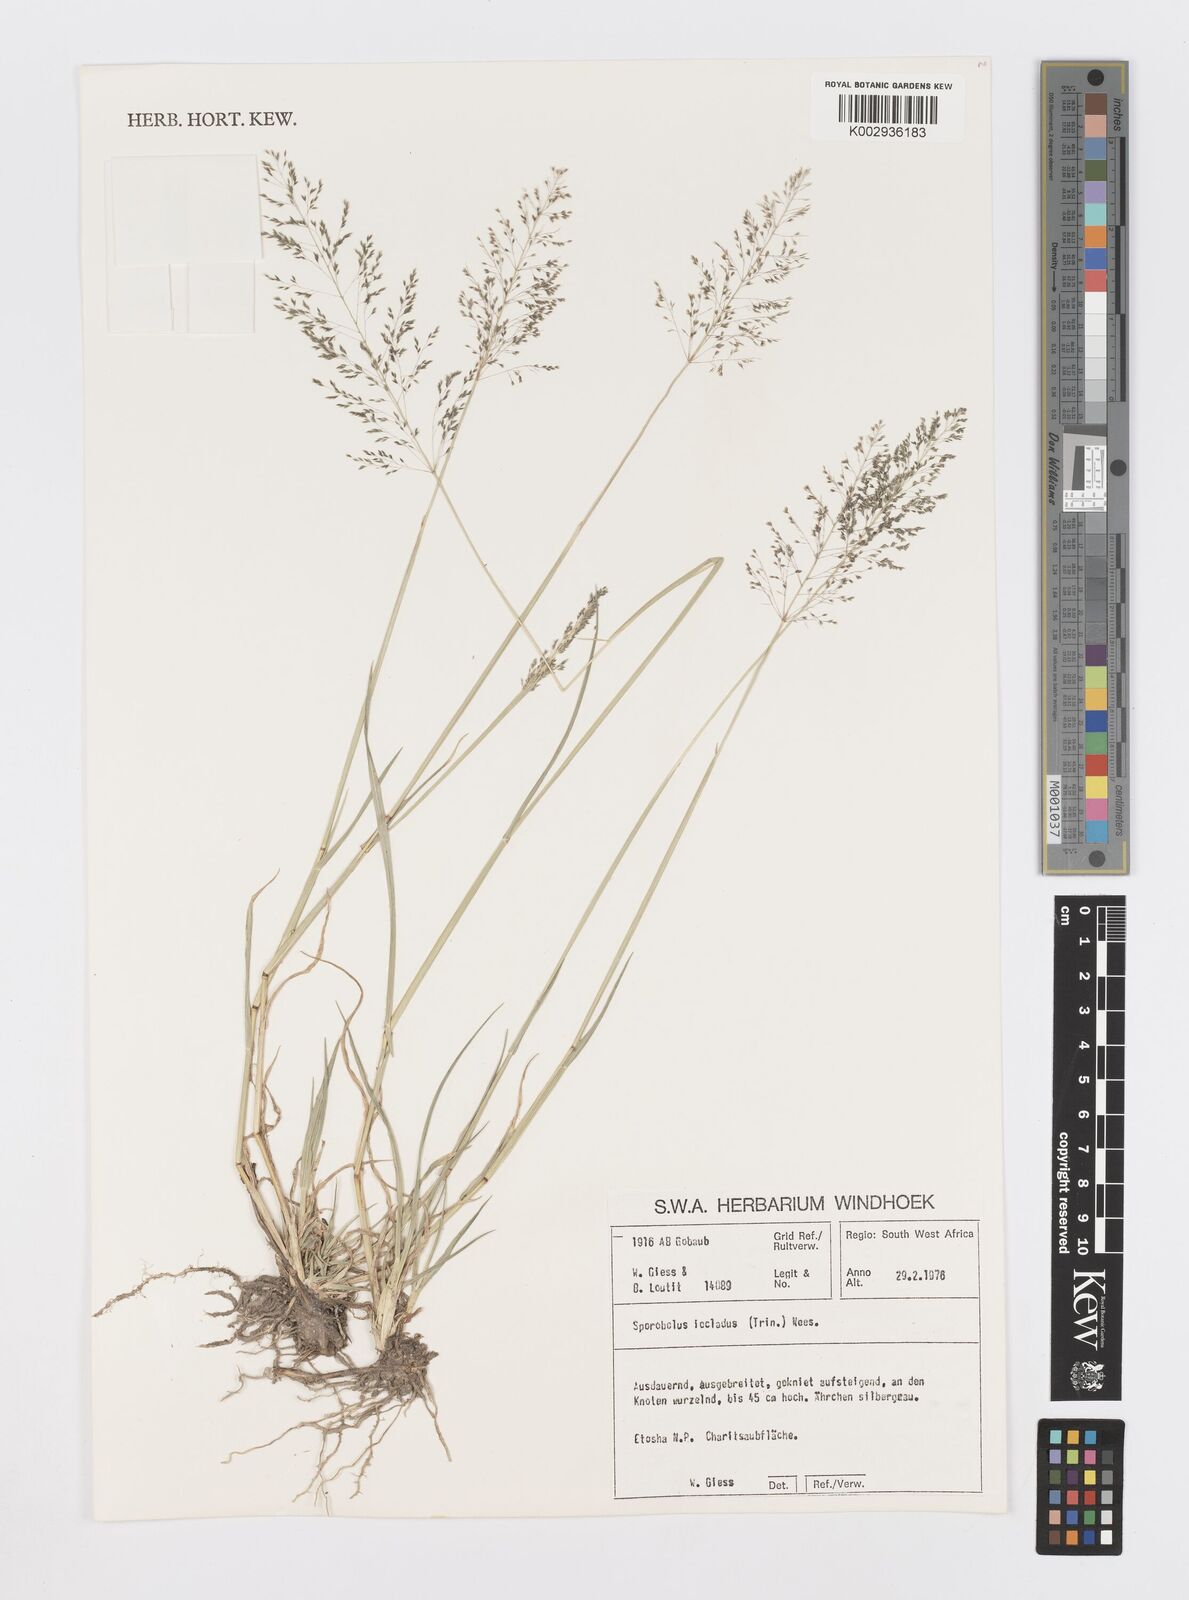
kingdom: Plantae
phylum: Tracheophyta
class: Liliopsida
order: Poales
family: Poaceae
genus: Sporobolus
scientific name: Sporobolus ioclados
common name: Pan dropseed
